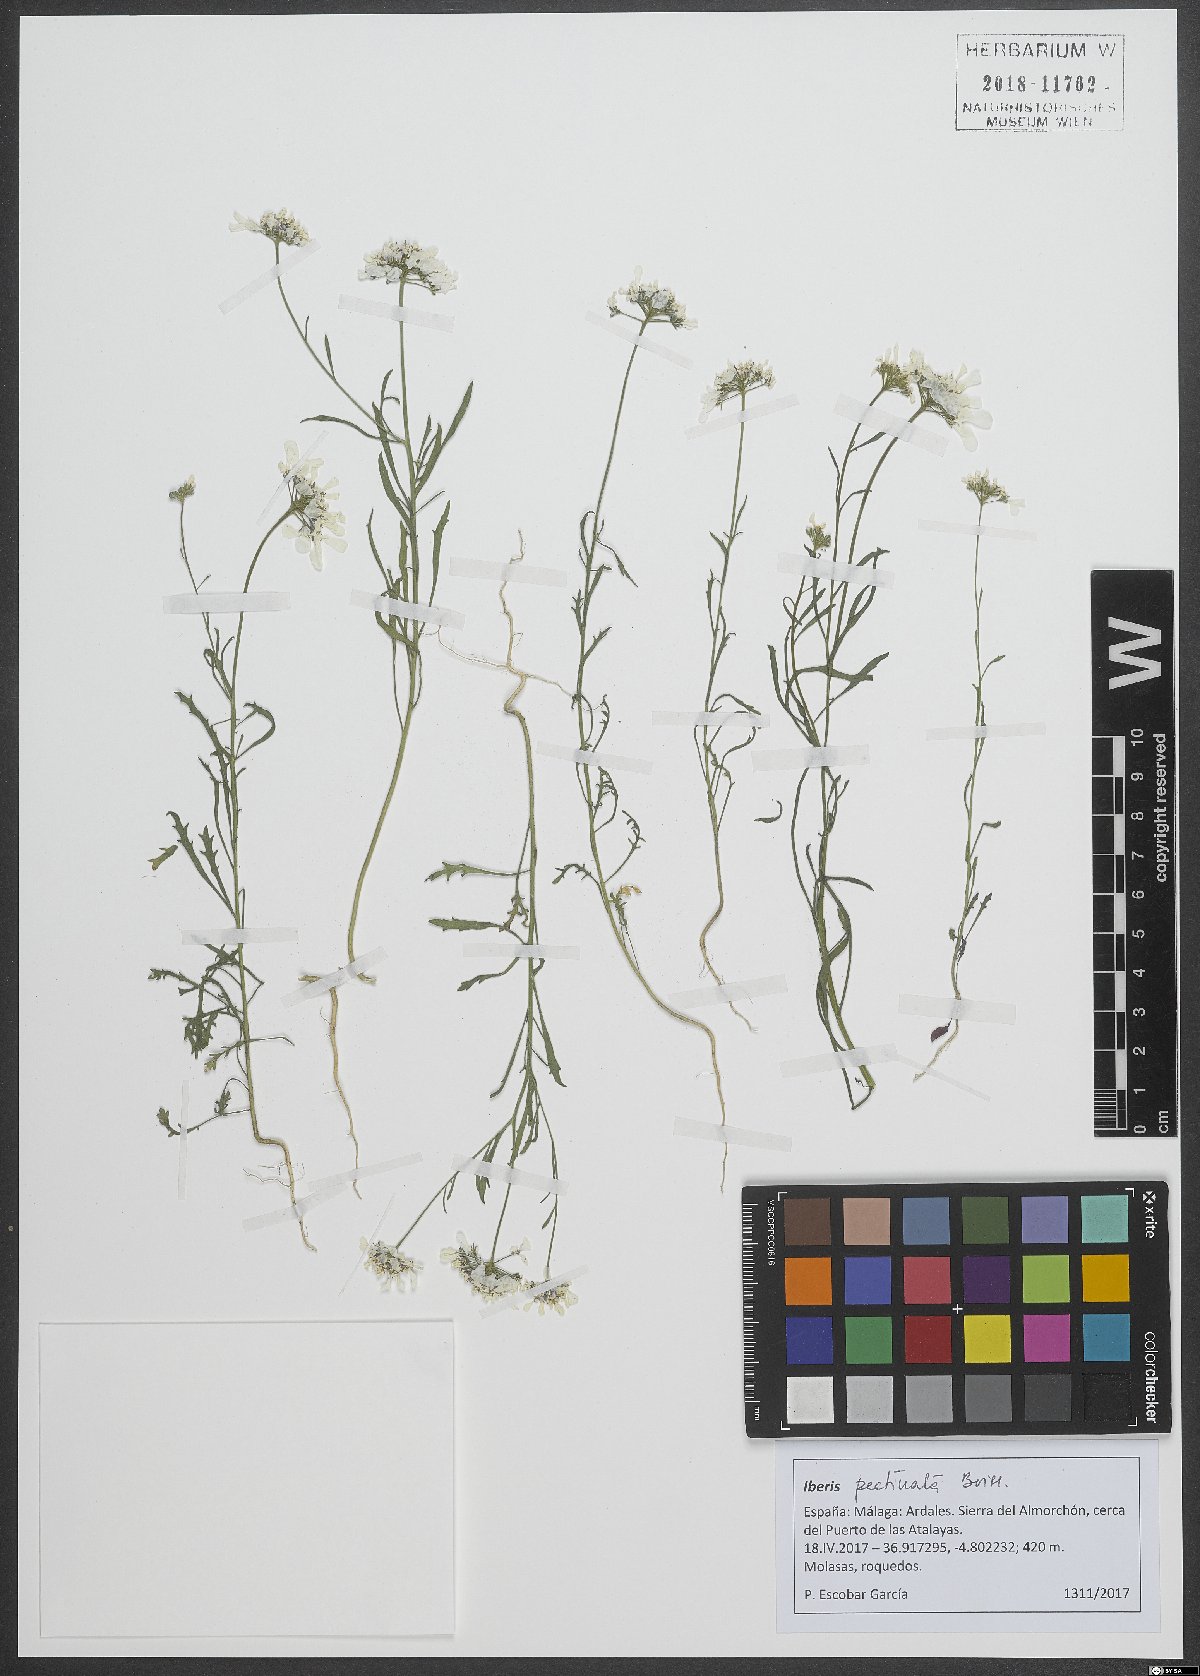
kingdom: Plantae
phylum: Tracheophyta
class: Magnoliopsida
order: Brassicales
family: Brassicaceae
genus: Iberis
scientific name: Iberis pectinata
